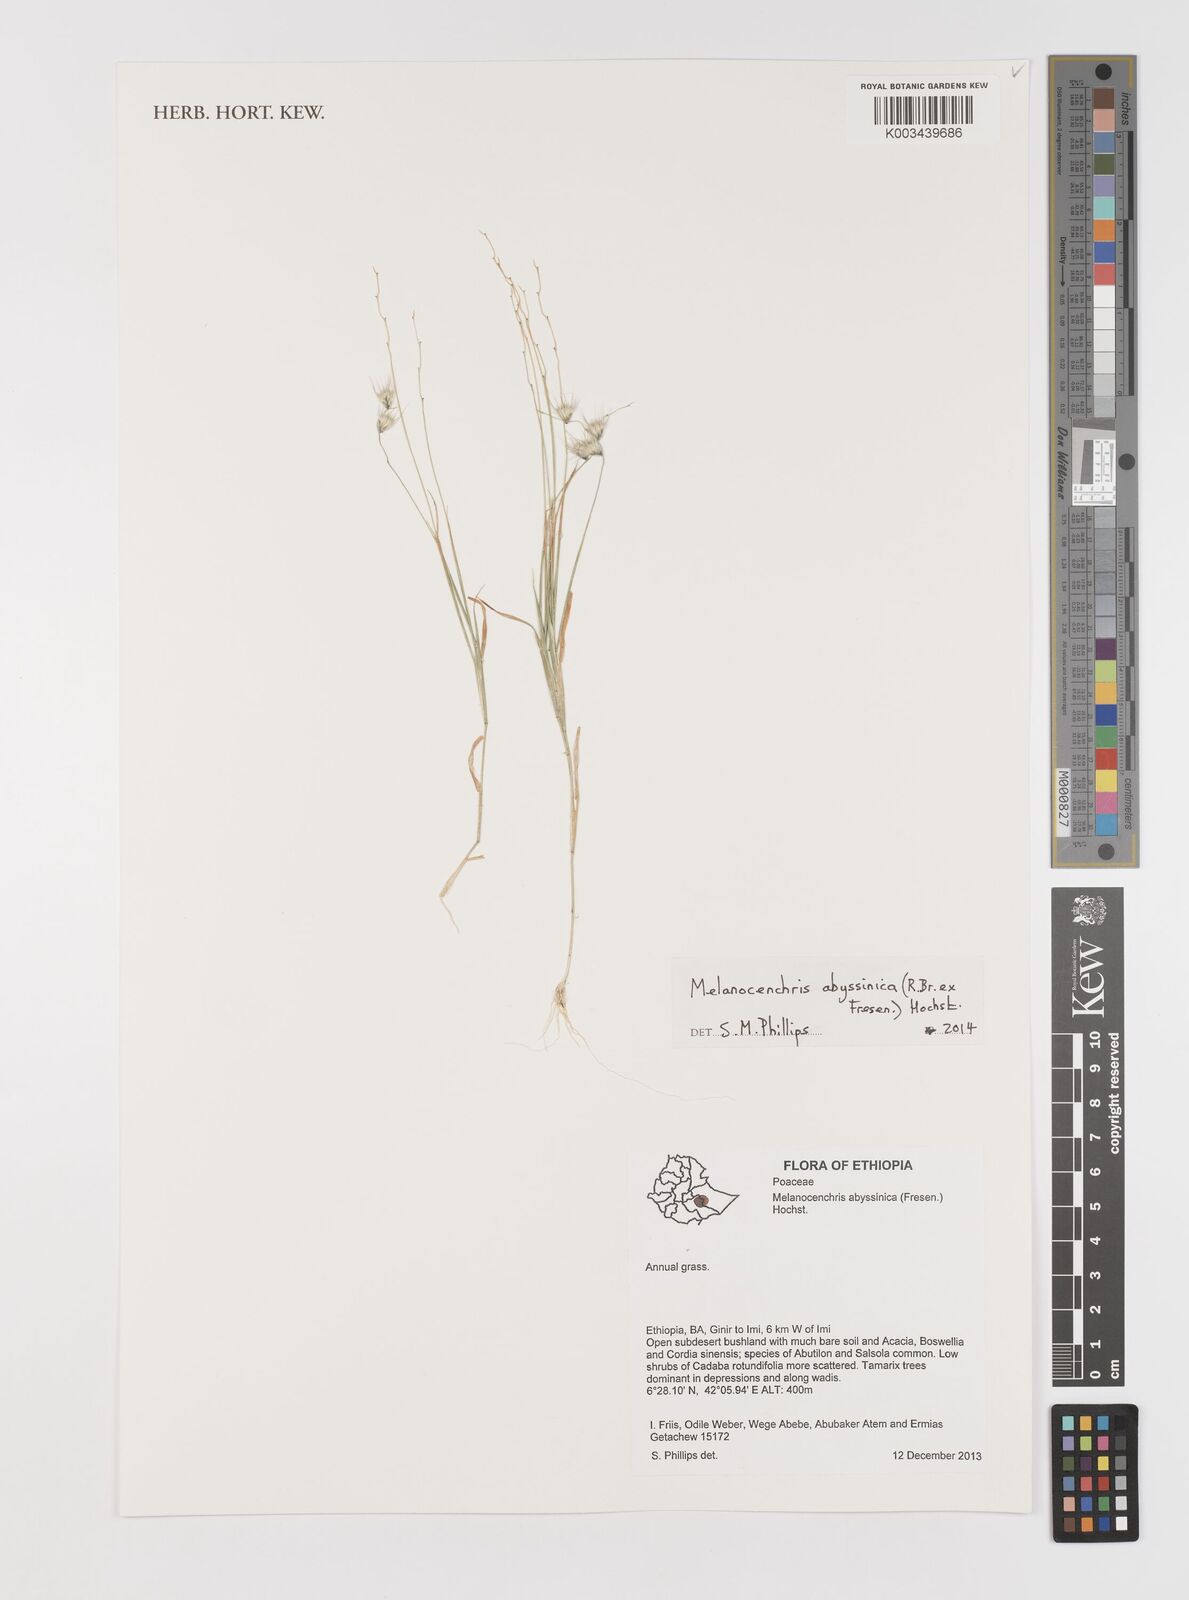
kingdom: Plantae
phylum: Tracheophyta
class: Liliopsida
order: Poales
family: Poaceae
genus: Melanocenchris
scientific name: Melanocenchris abyssinica
